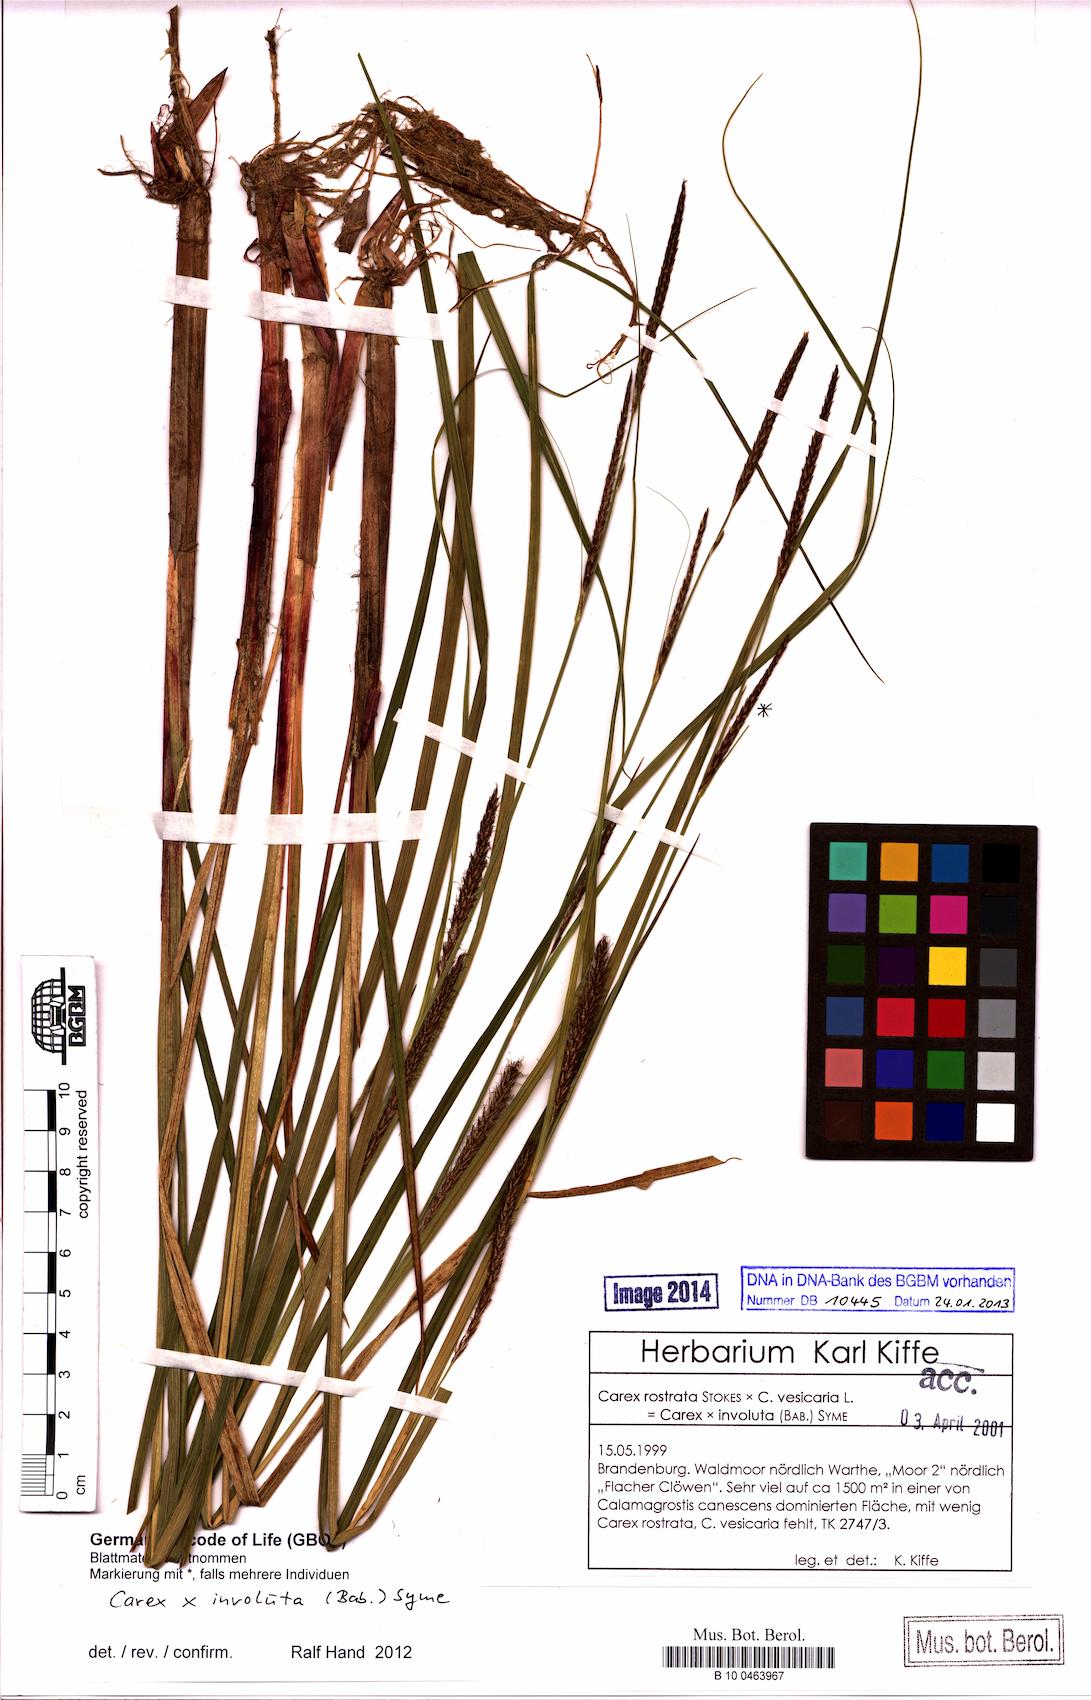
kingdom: Plantae
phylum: Tracheophyta
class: Liliopsida
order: Poales
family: Cyperaceae
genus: Carex
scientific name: Carex involuta
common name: Pannewitz's sedge
